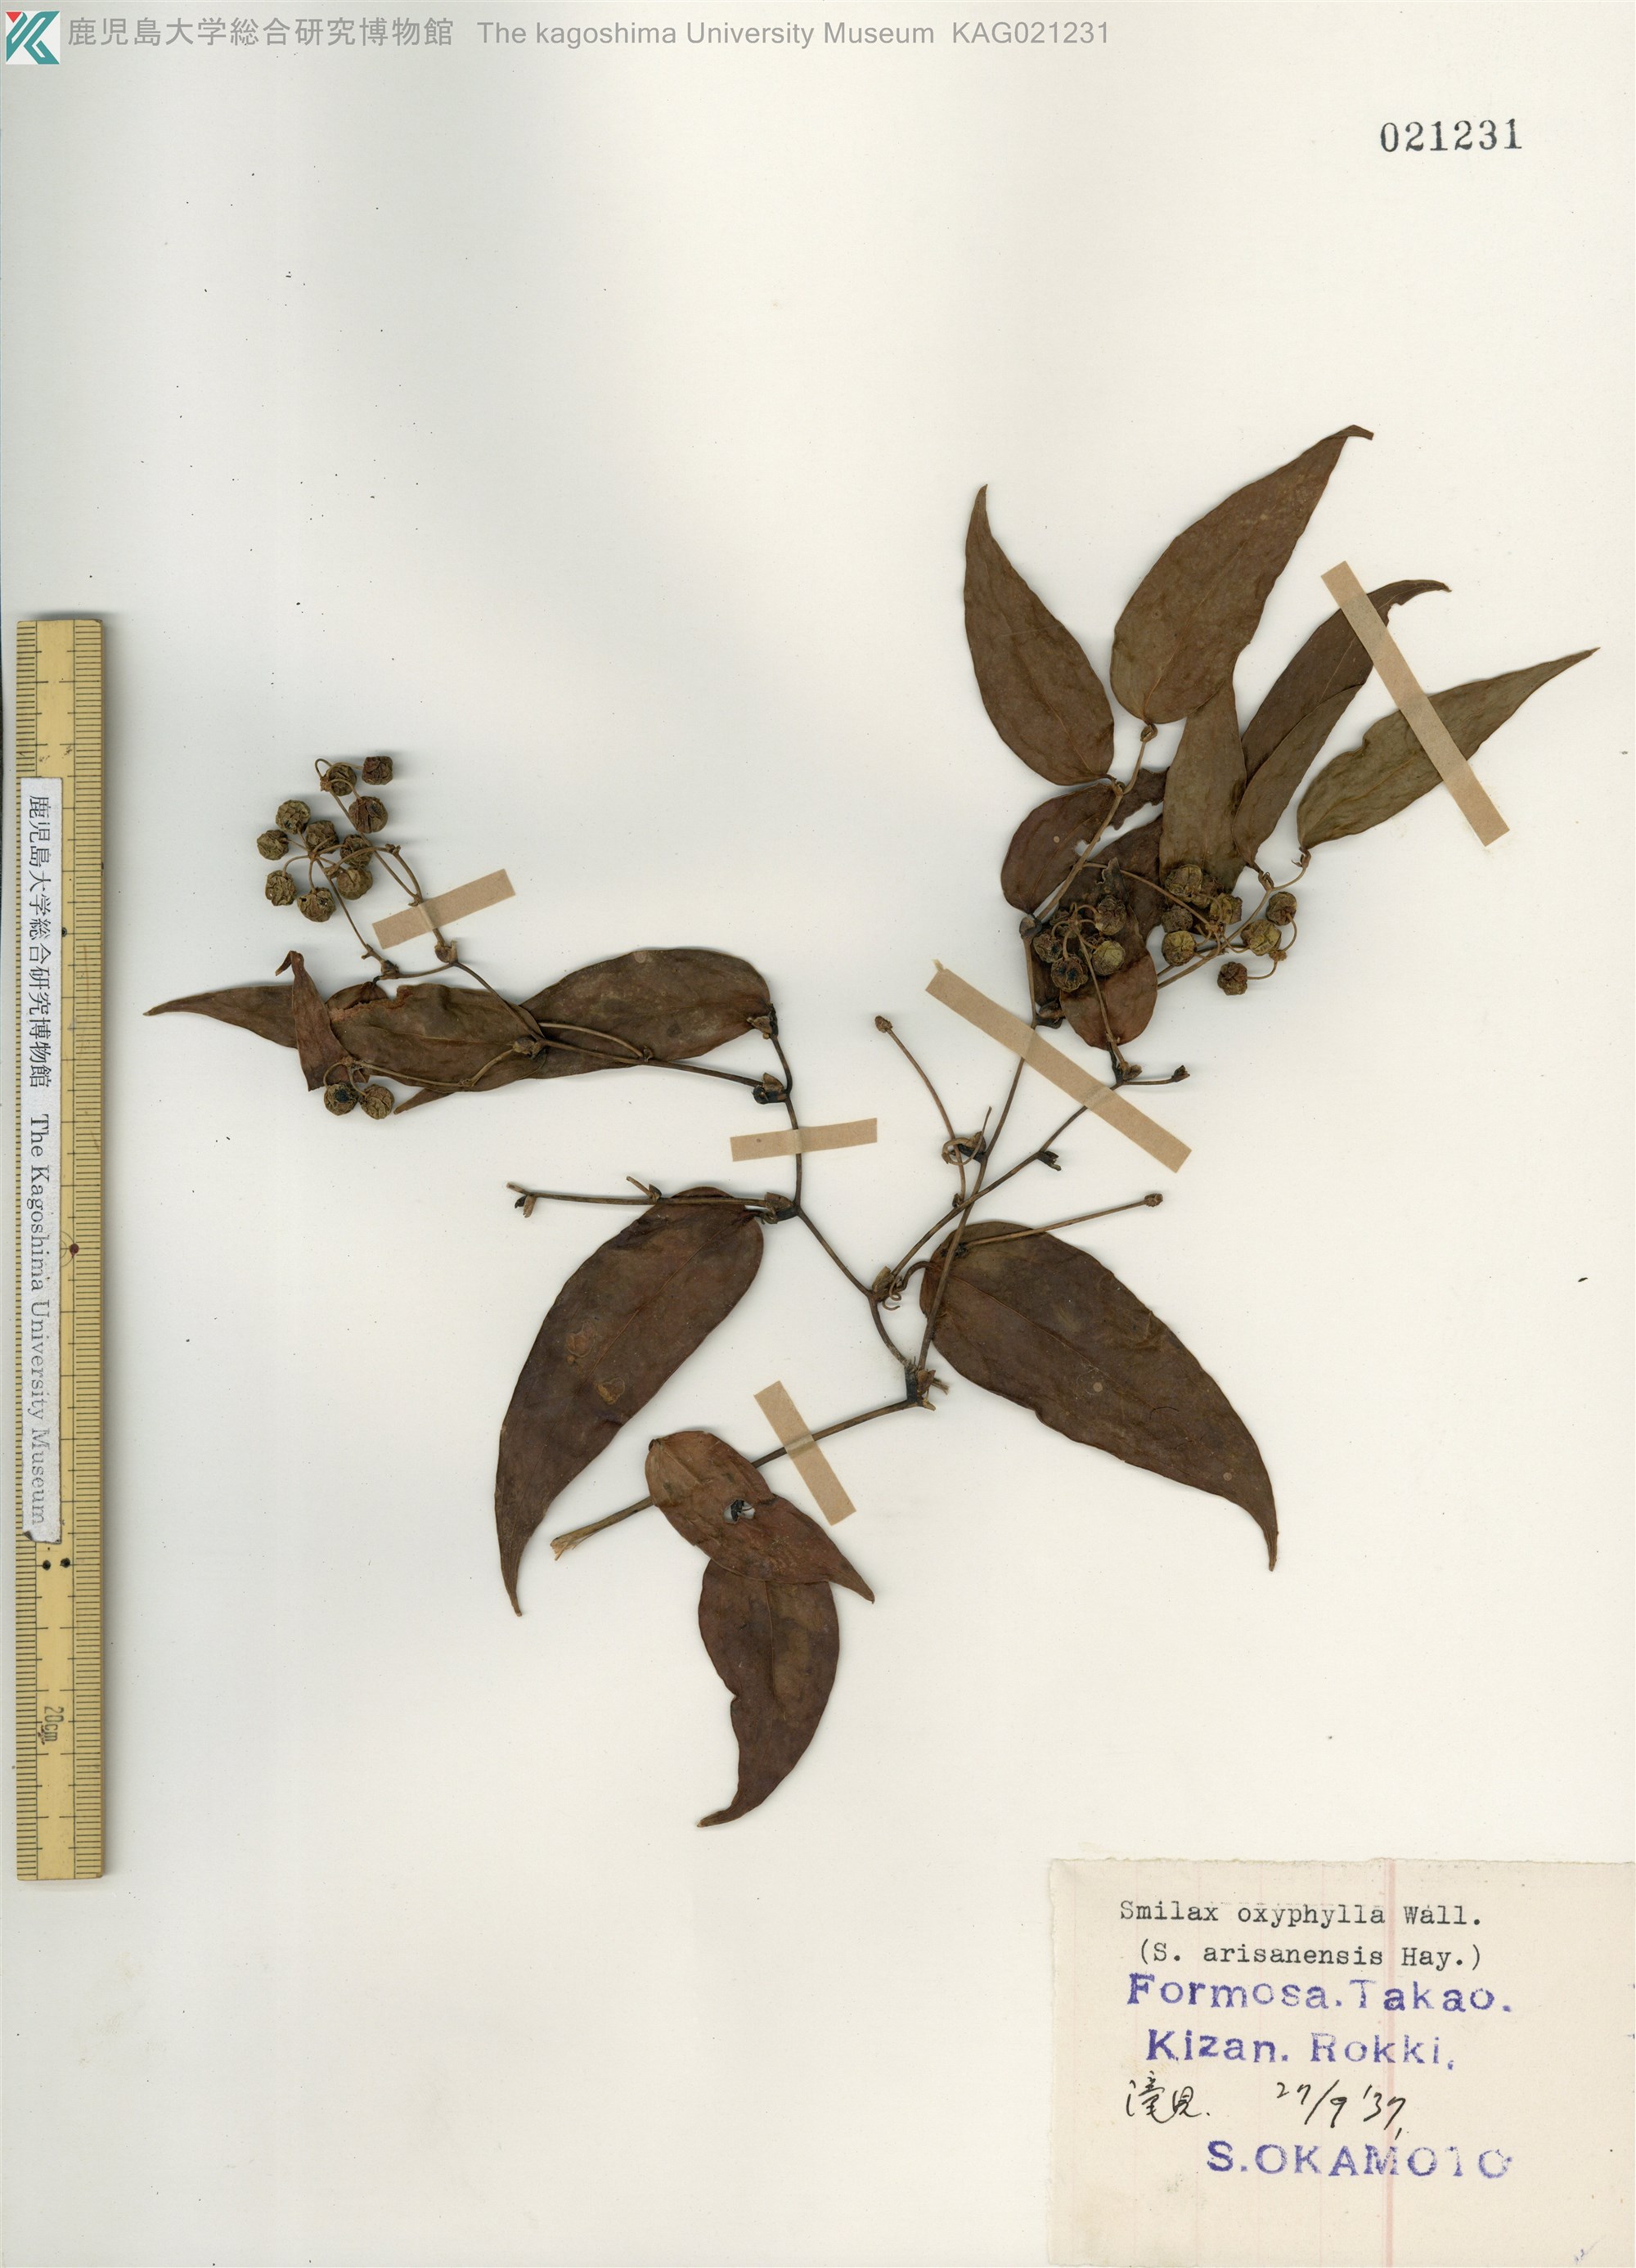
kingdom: Plantae
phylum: Tracheophyta
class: Liliopsida
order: Liliales
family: Smilacaceae
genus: Smilax
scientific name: Smilax oxyphylla
